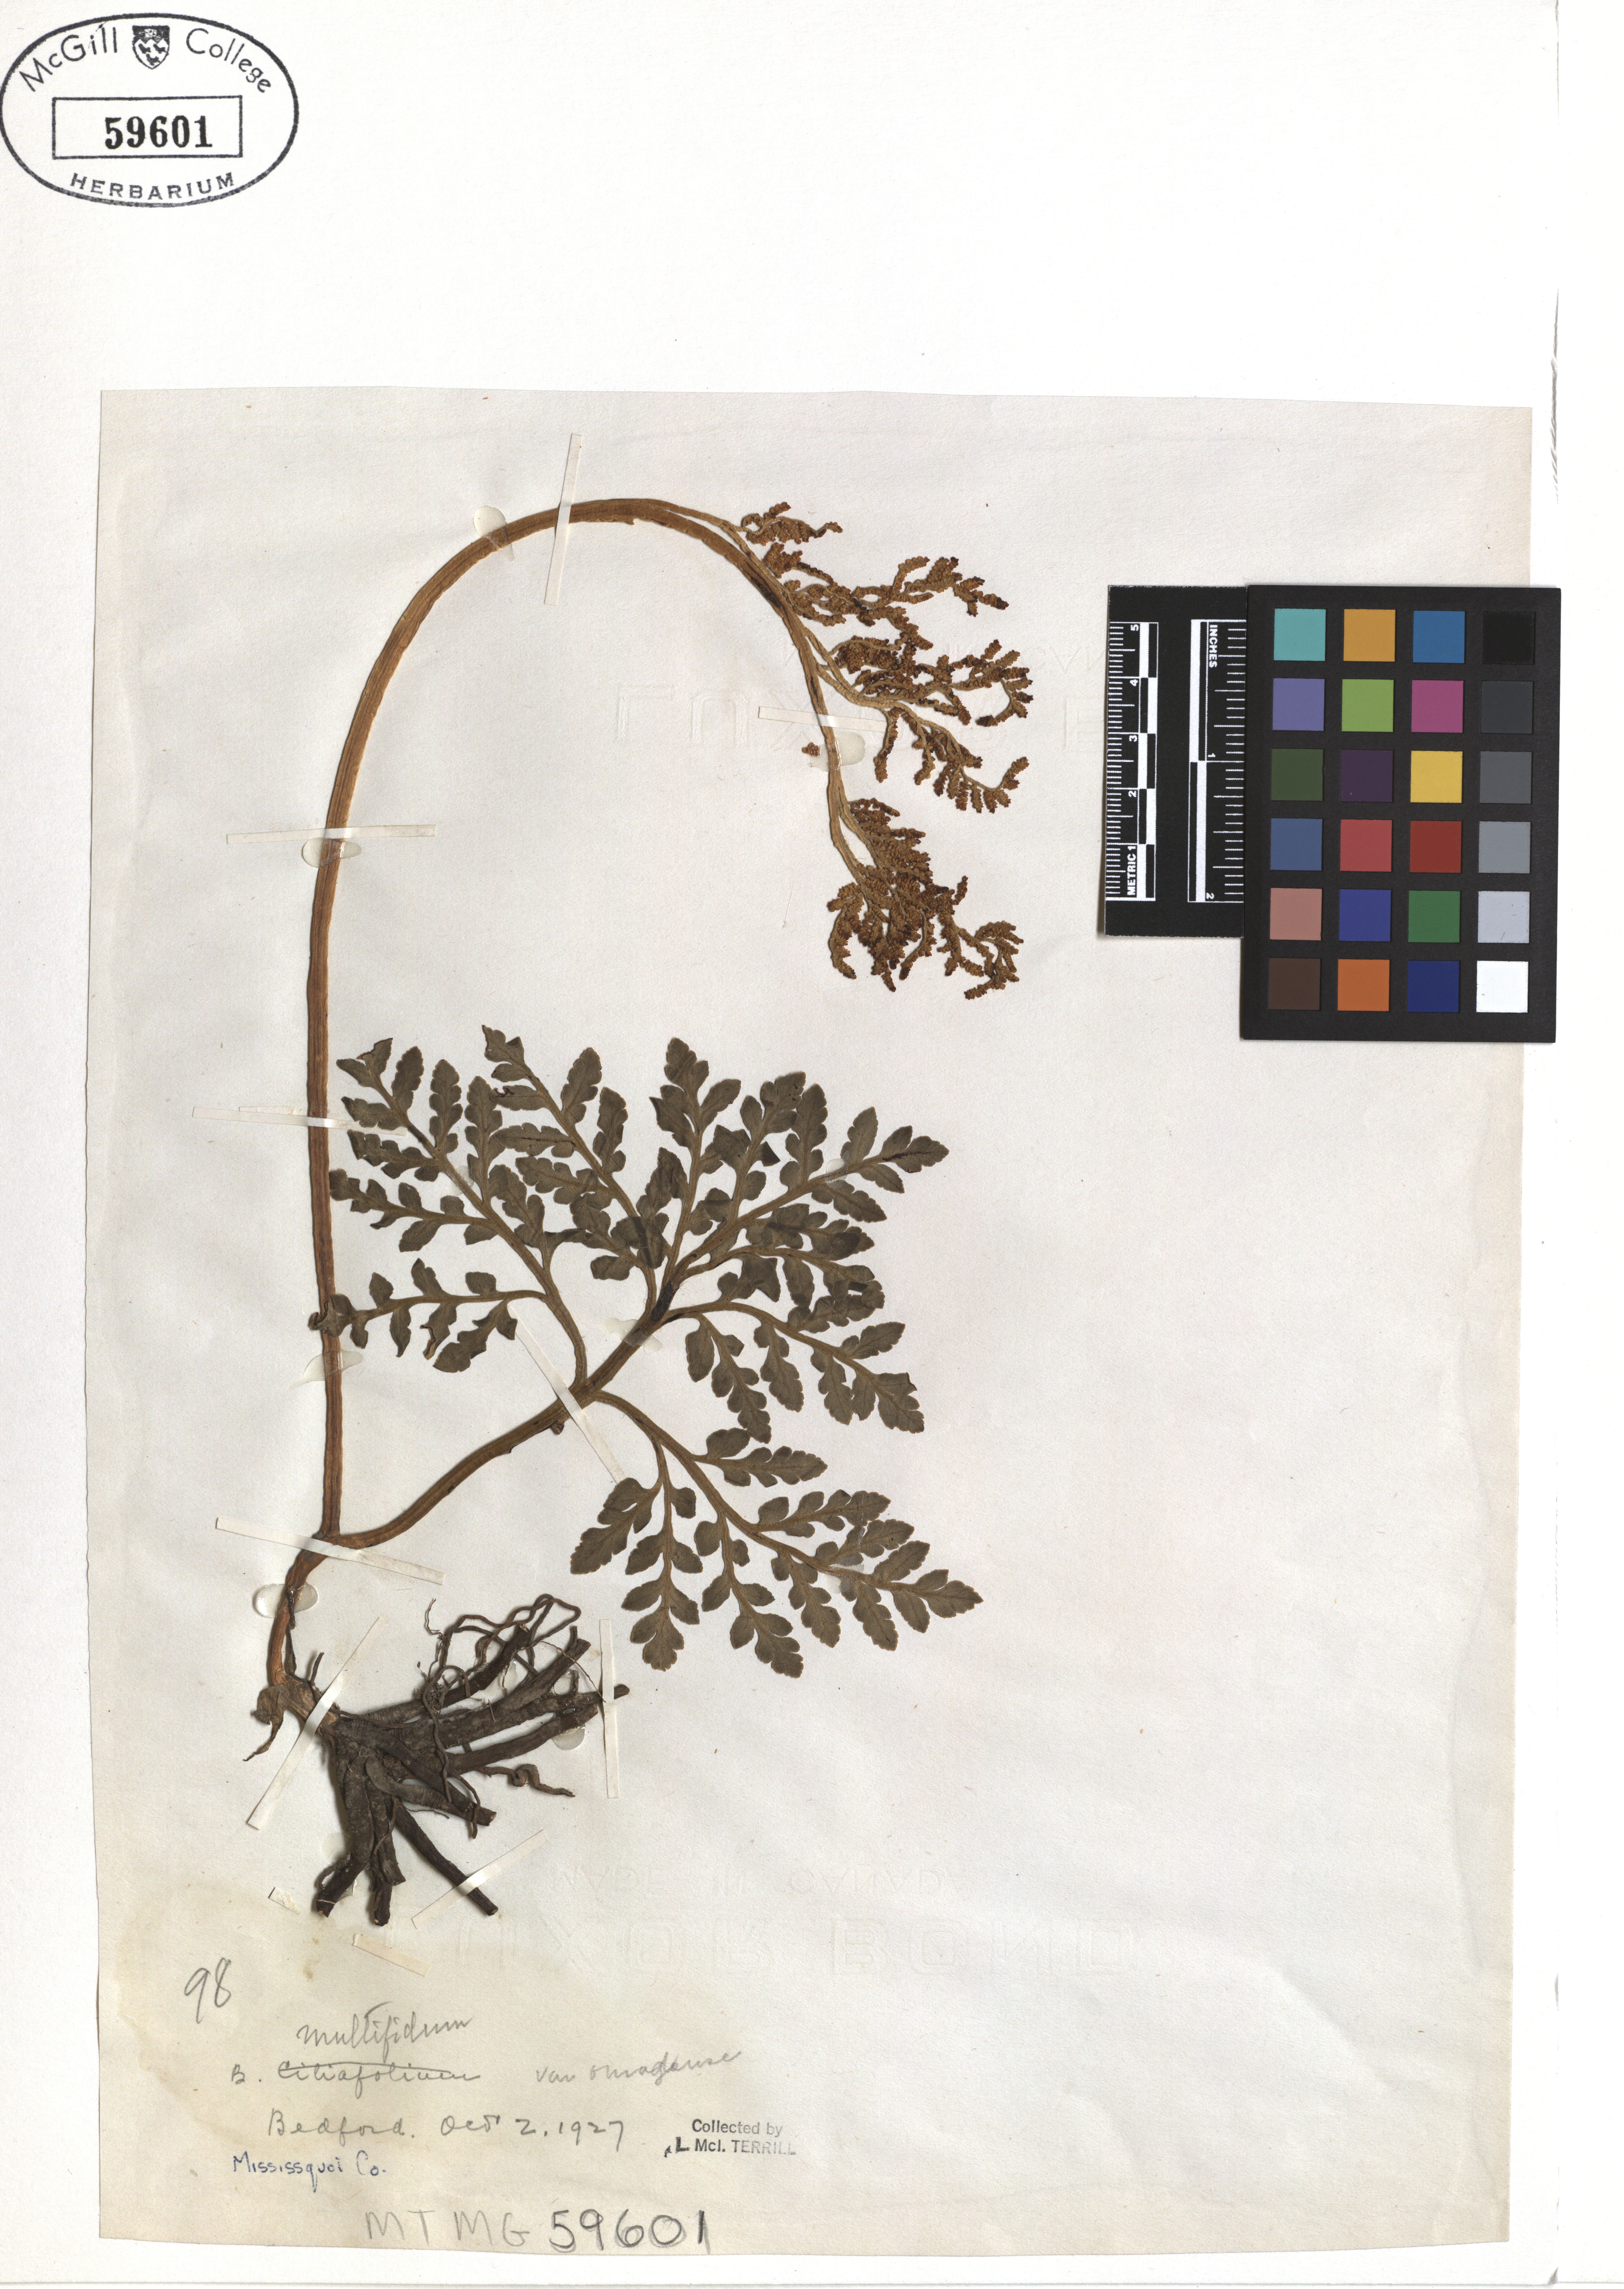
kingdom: Plantae
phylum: Tracheophyta
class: Polypodiopsida
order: Ophioglossales
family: Ophioglossaceae
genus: Sceptridium
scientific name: Sceptridium oneidense
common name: Blunt-lobed grapefern
